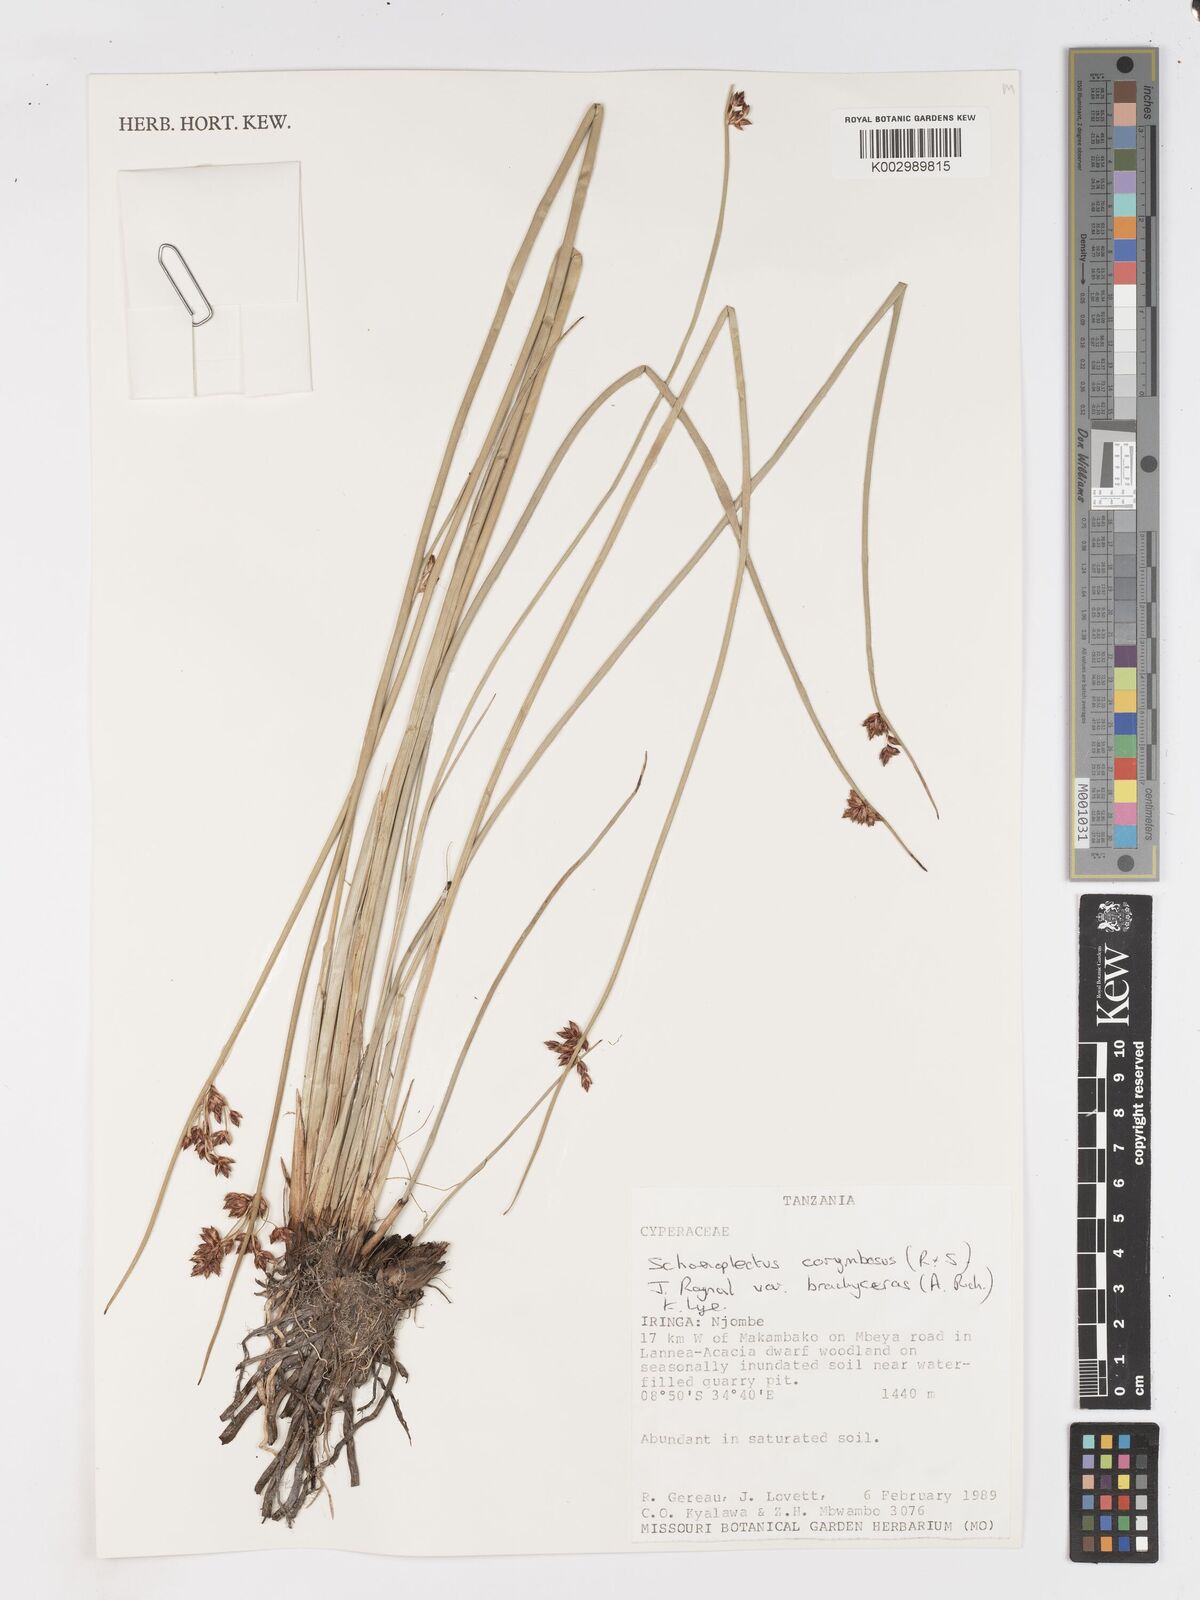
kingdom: Plantae
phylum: Tracheophyta
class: Liliopsida
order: Poales
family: Cyperaceae
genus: Schoenoplectiella
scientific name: Schoenoplectiella brachyceras
